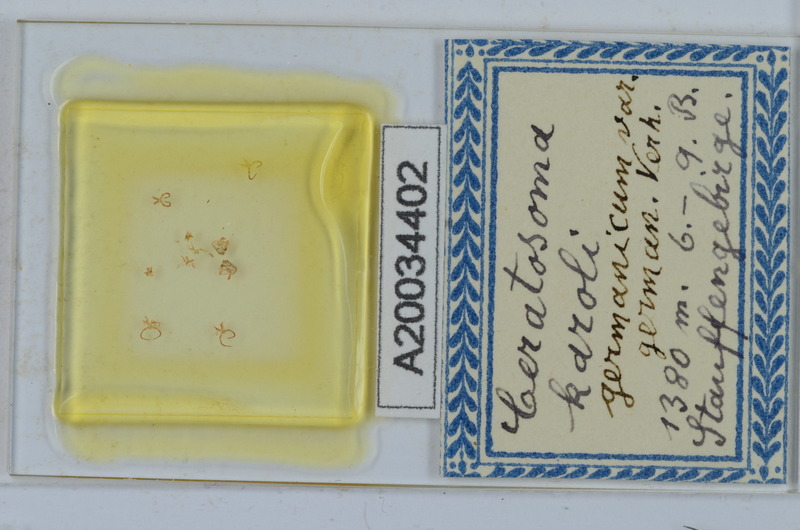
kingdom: Animalia
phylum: Arthropoda
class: Diplopoda
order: Chordeumatida
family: Anthogonidae
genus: Haasia
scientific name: Haasia troglodytes
